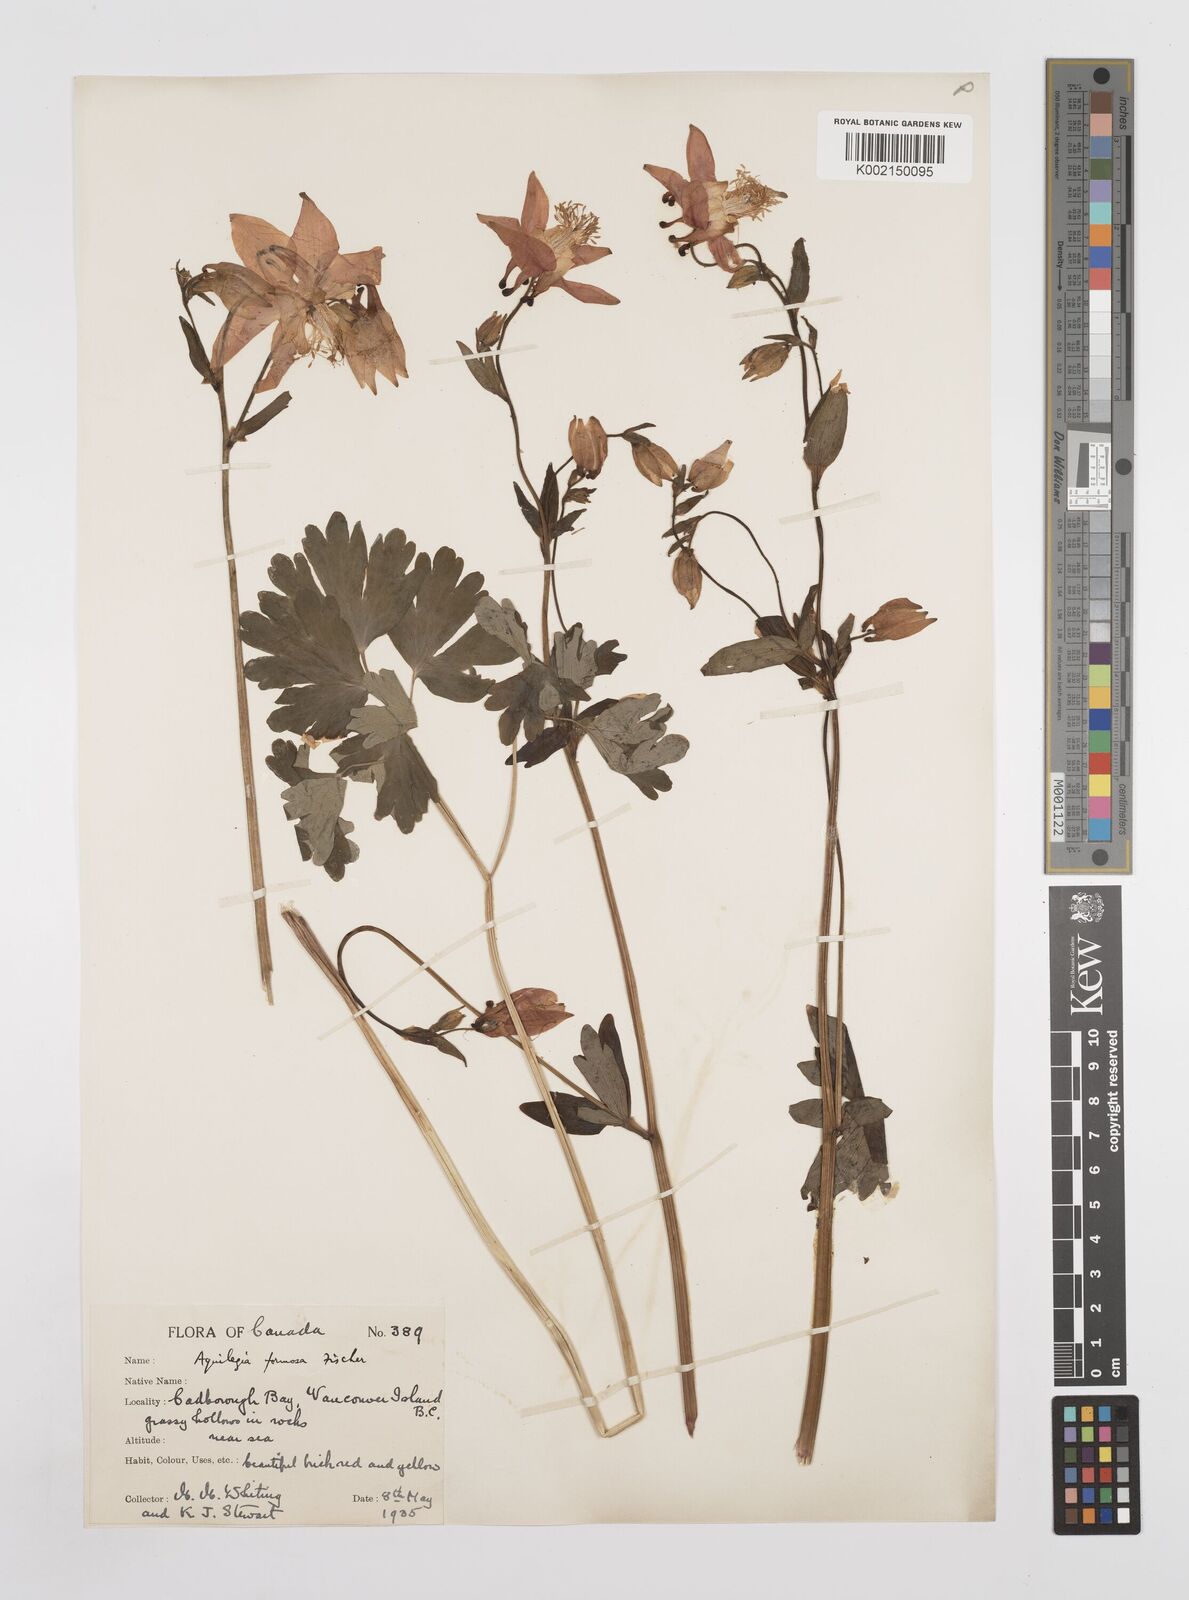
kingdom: Plantae
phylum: Tracheophyta
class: Magnoliopsida
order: Ranunculales
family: Ranunculaceae
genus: Aquilegia
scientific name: Aquilegia
